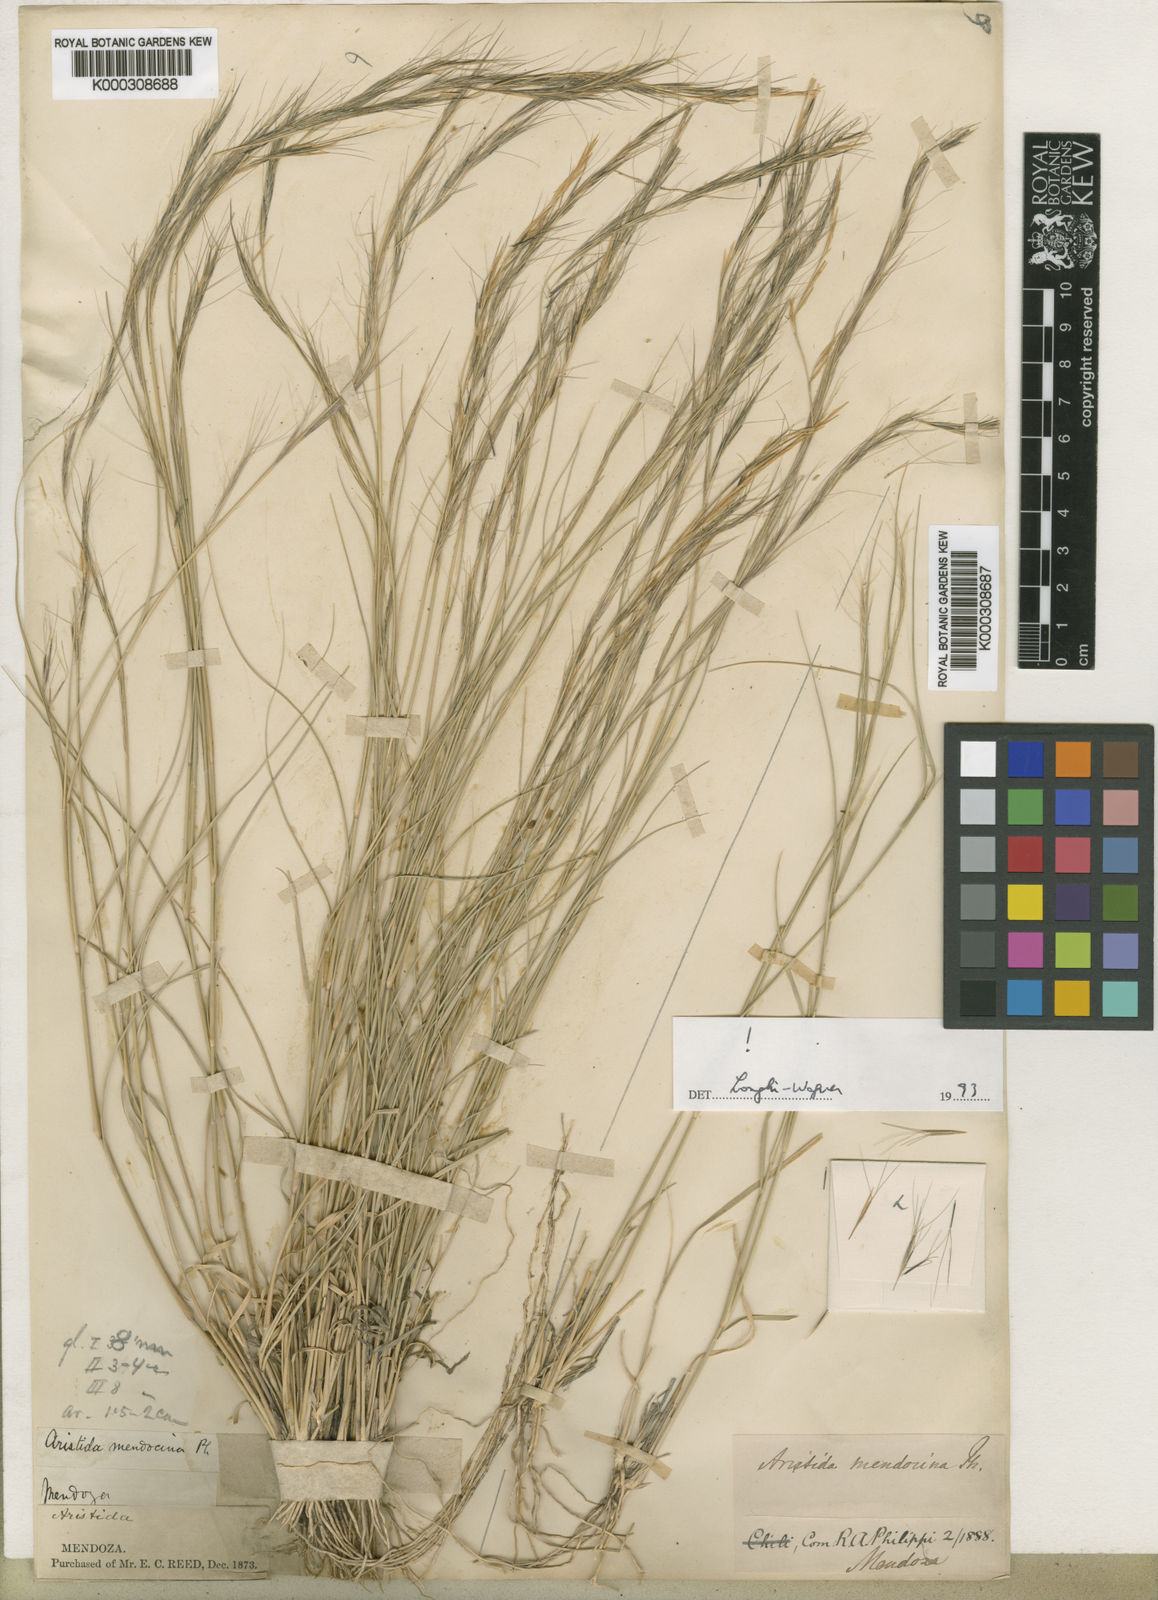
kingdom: Plantae
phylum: Tracheophyta
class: Liliopsida
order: Poales
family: Poaceae
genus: Aristida
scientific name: Aristida mendocina
